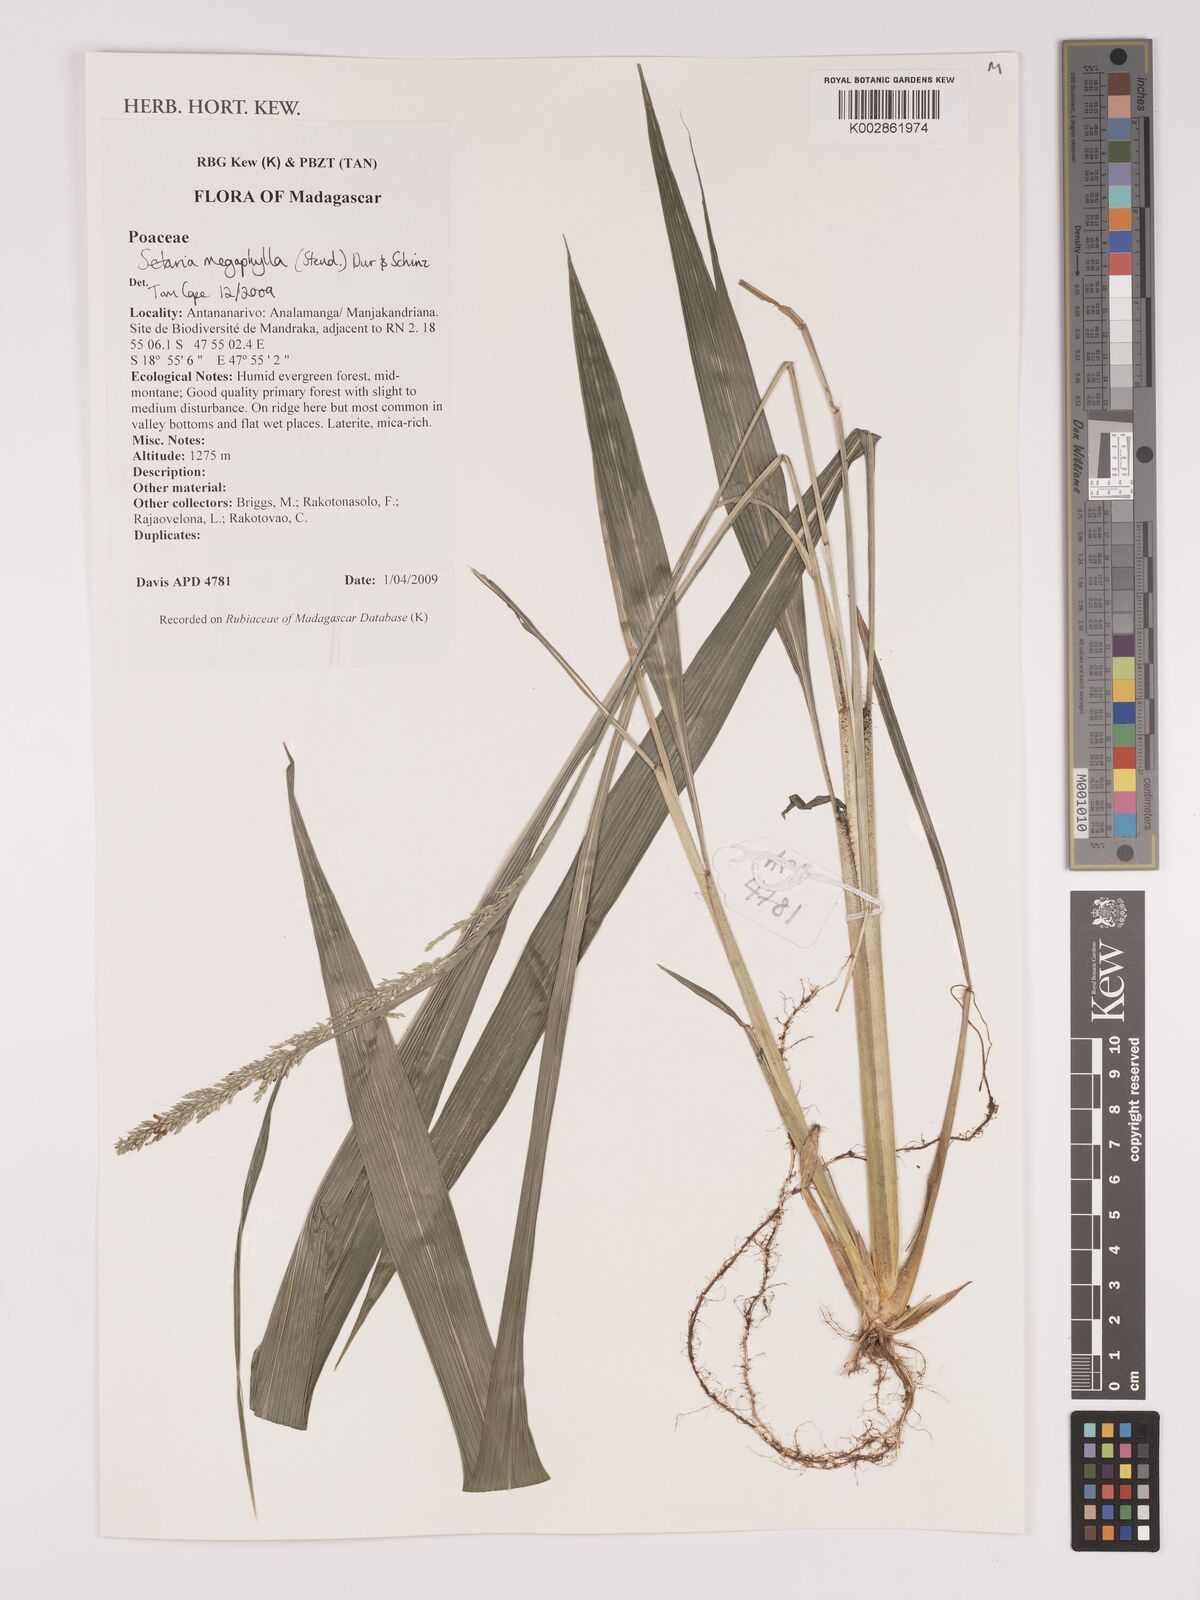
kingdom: Plantae
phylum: Tracheophyta
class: Liliopsida
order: Poales
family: Poaceae
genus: Setaria
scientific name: Setaria megaphylla
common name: Bigleaf bristlegrass
